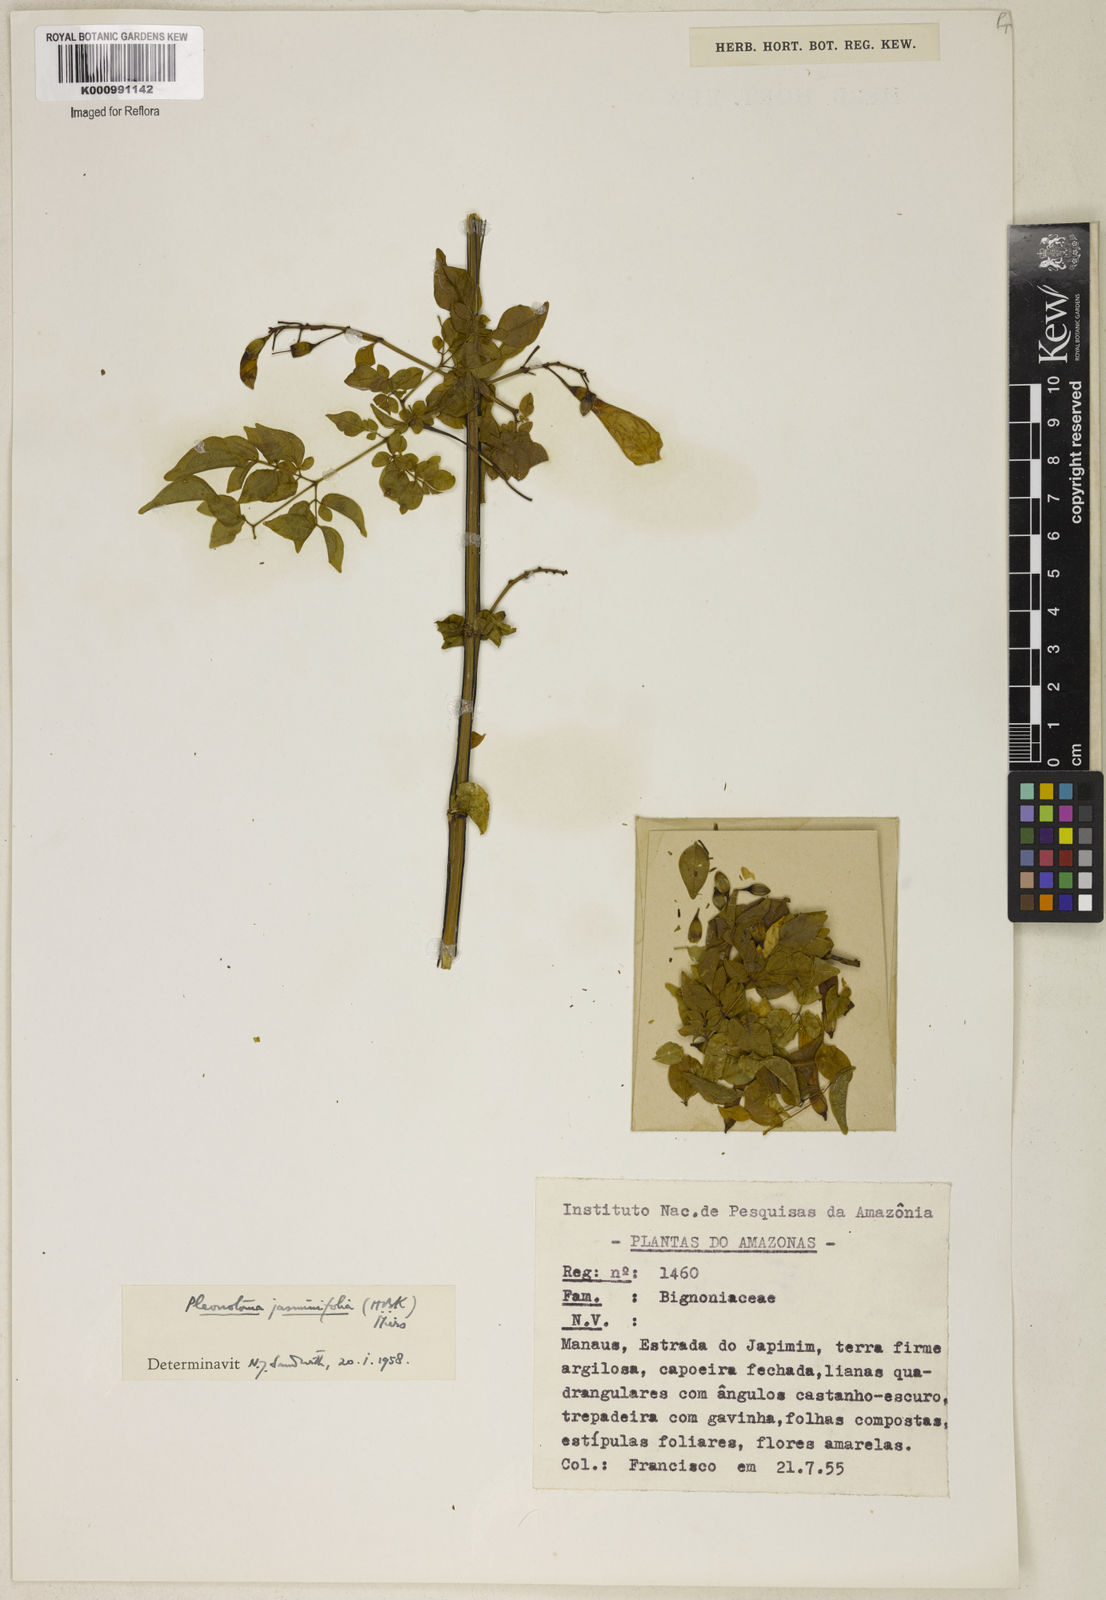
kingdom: Plantae
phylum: Tracheophyta
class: Magnoliopsida
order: Lamiales
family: Bignoniaceae
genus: Pleonotoma
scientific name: Pleonotoma jasminifolia
